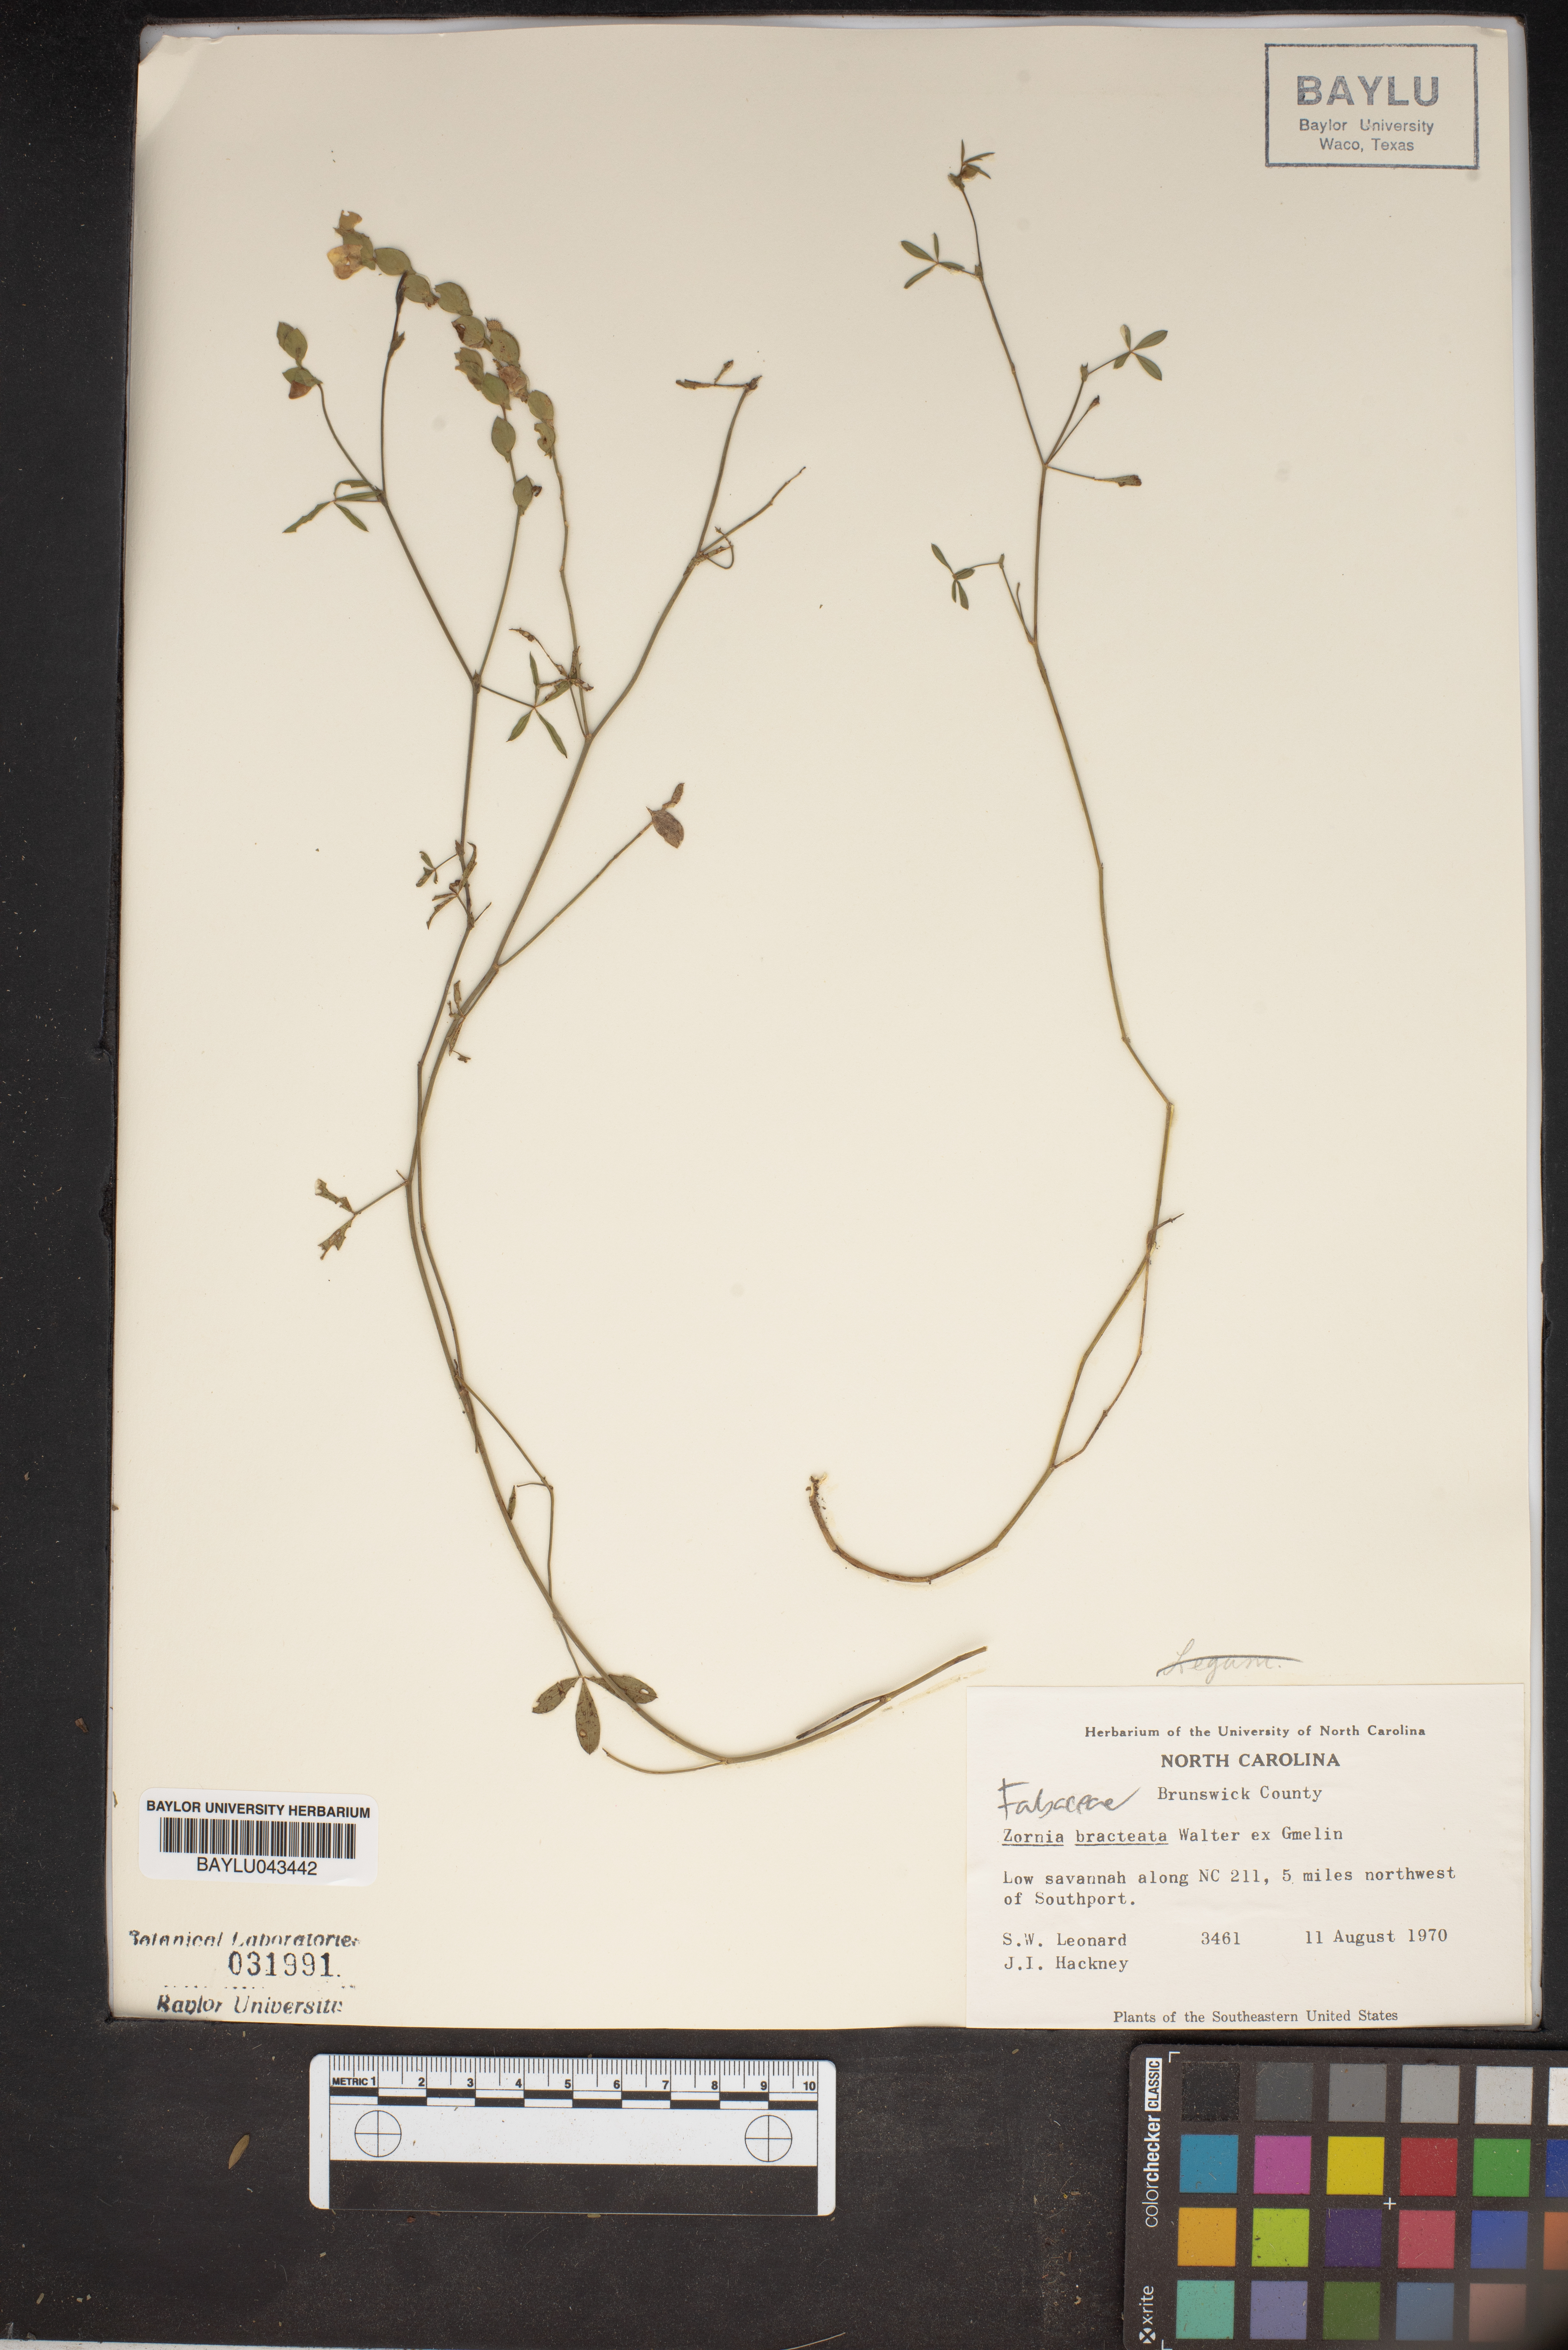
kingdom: Plantae
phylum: Tracheophyta
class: Magnoliopsida
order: Fabales
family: Fabaceae
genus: Zornia
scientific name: Zornia bracteata
